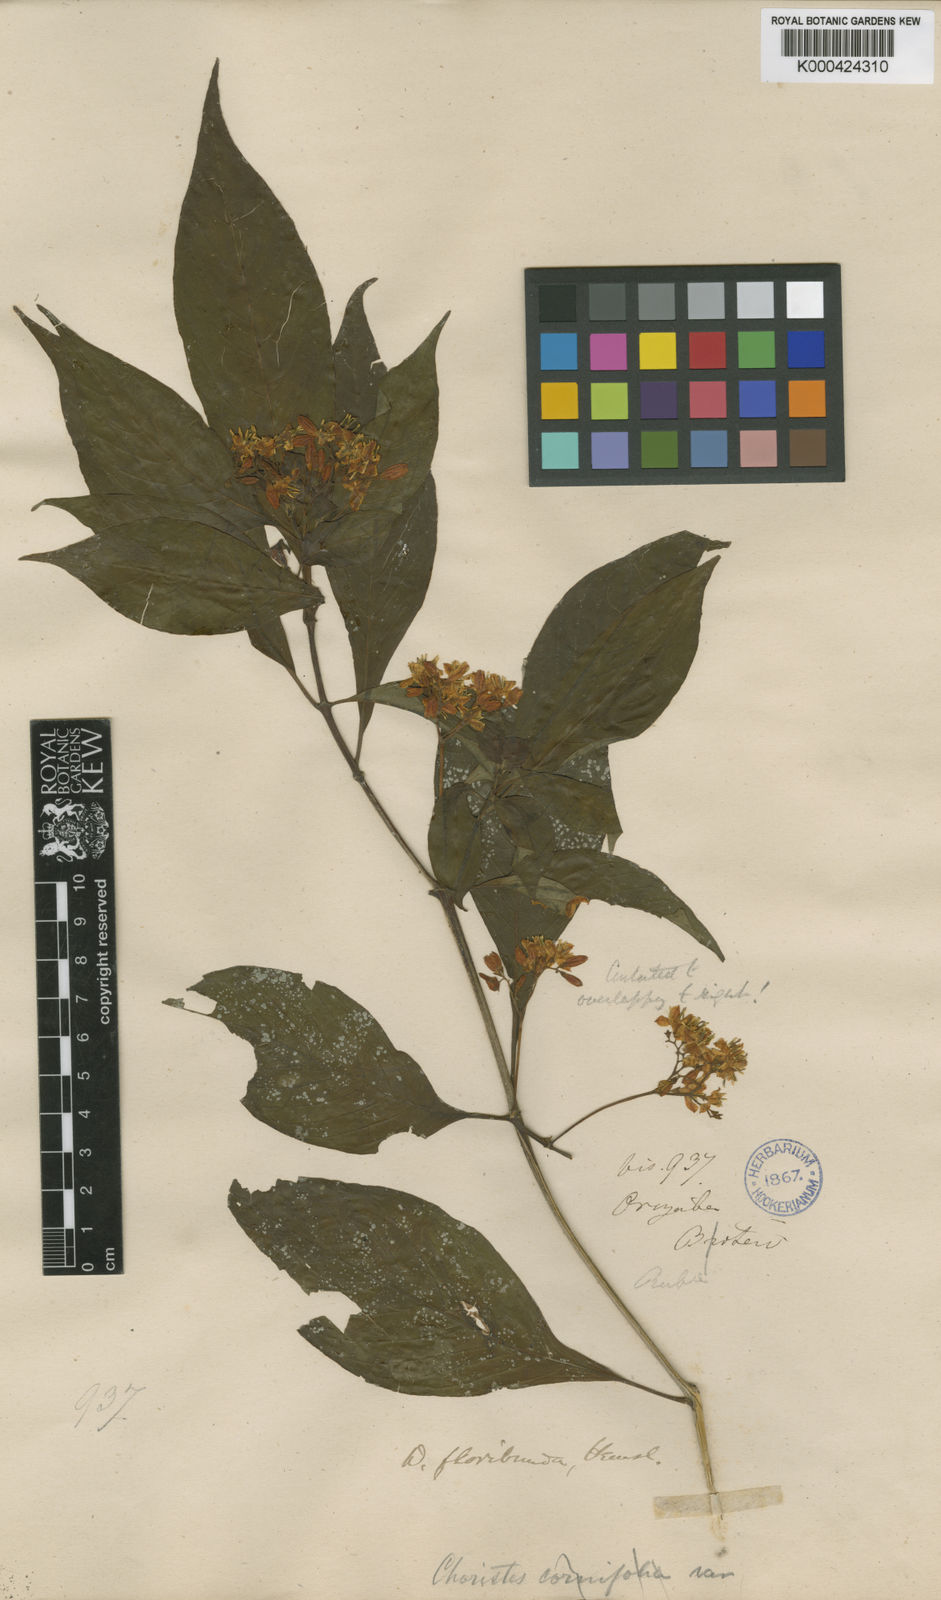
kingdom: Plantae
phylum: Tracheophyta
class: Magnoliopsida
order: Gentianales
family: Rubiaceae
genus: Deppea
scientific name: Deppea grandiflora
